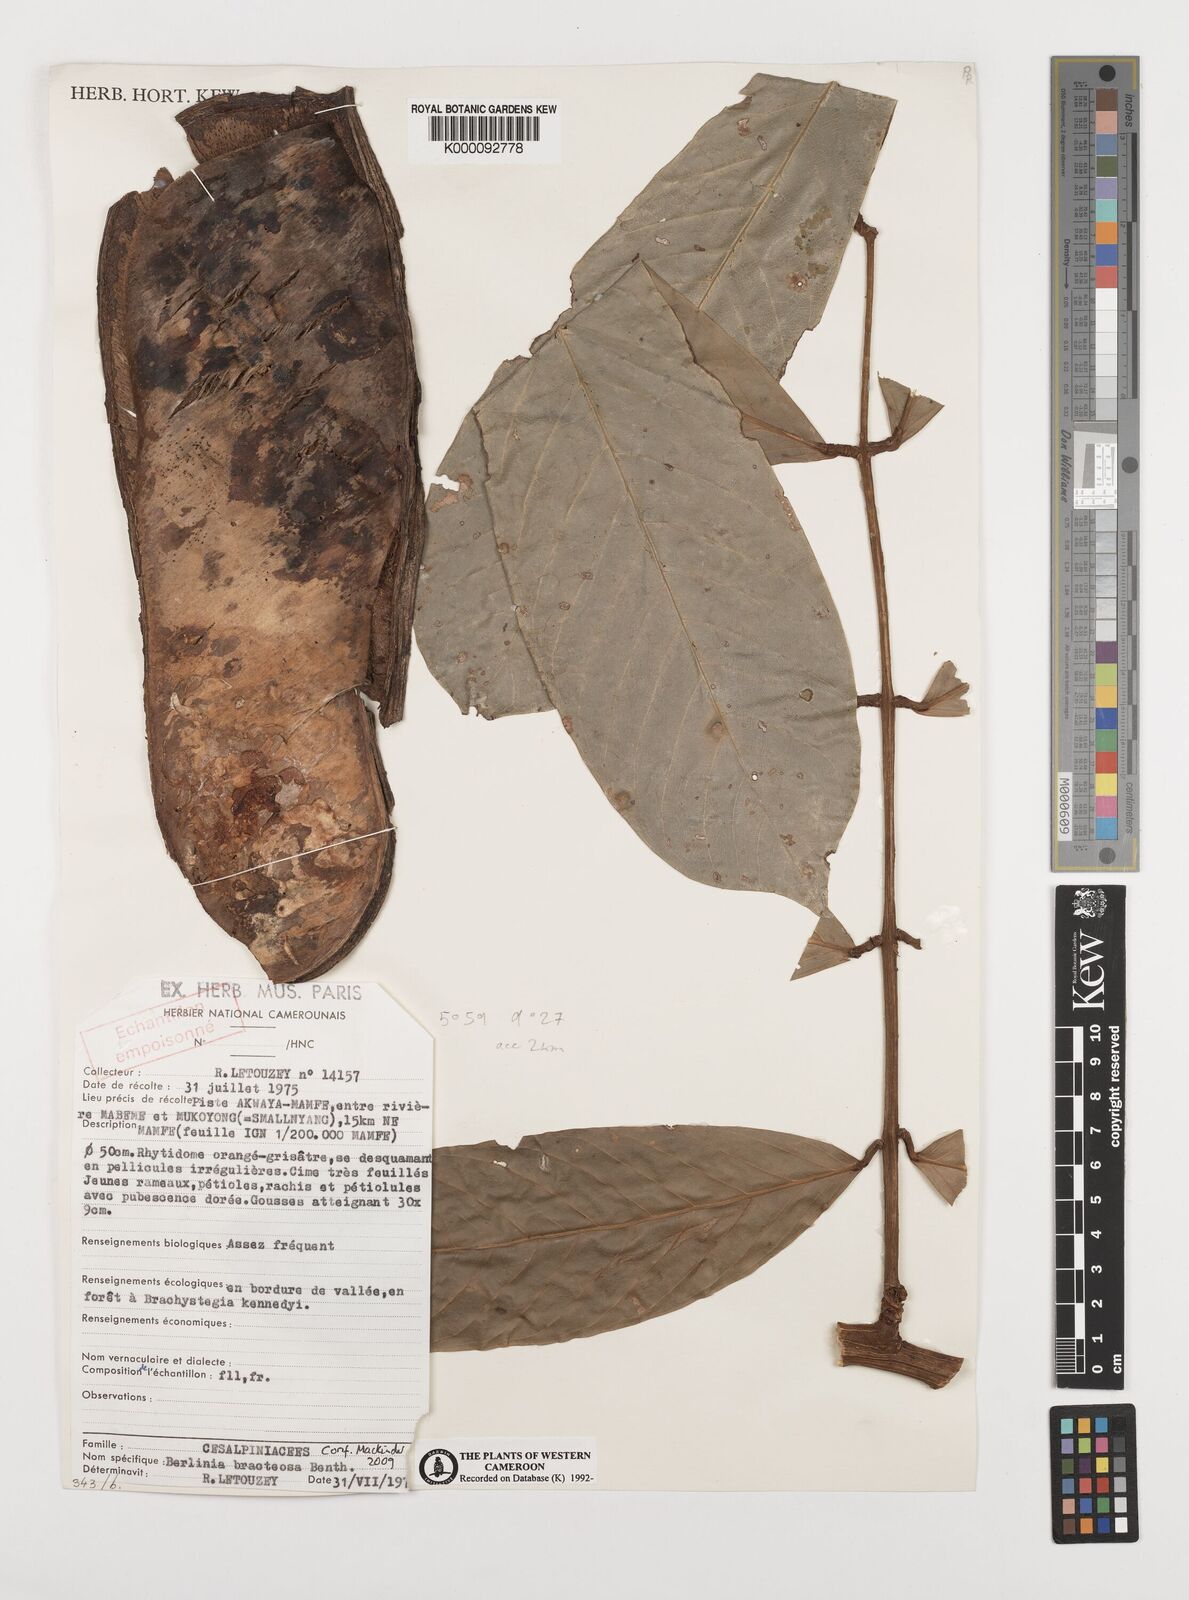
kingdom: Plantae
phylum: Tracheophyta
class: Magnoliopsida
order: Fabales
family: Fabaceae
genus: Berlinia
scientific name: Berlinia bracteosa
